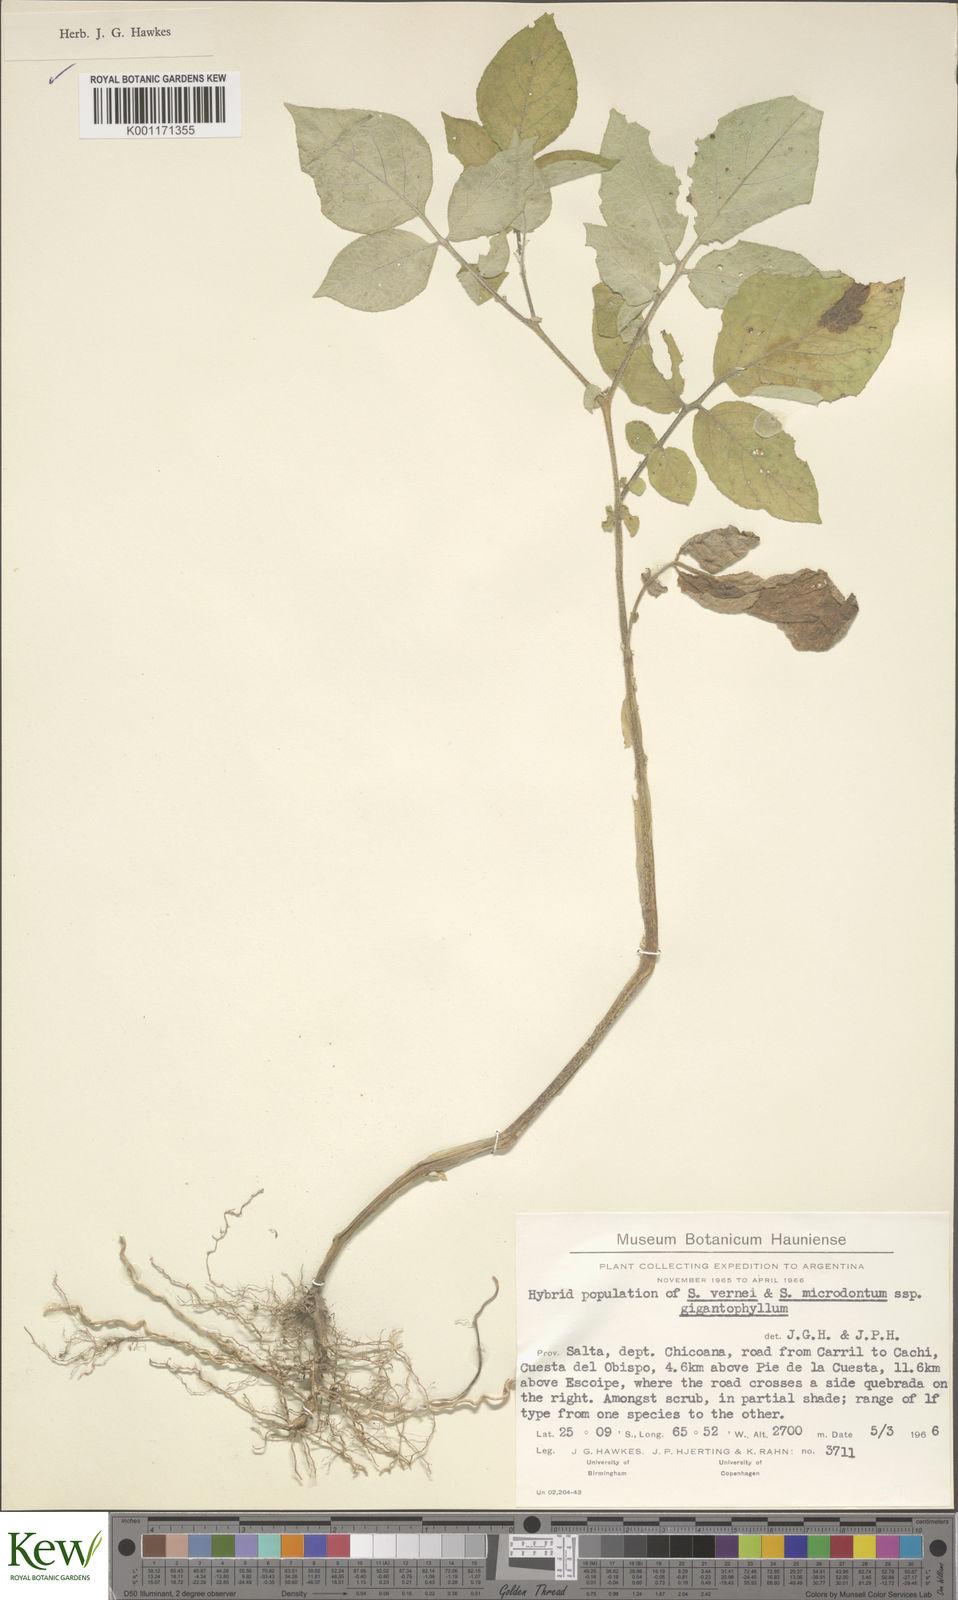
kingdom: Plantae
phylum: Tracheophyta
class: Magnoliopsida
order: Solanales
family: Solanaceae
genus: Solanum
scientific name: Solanum microdontum
